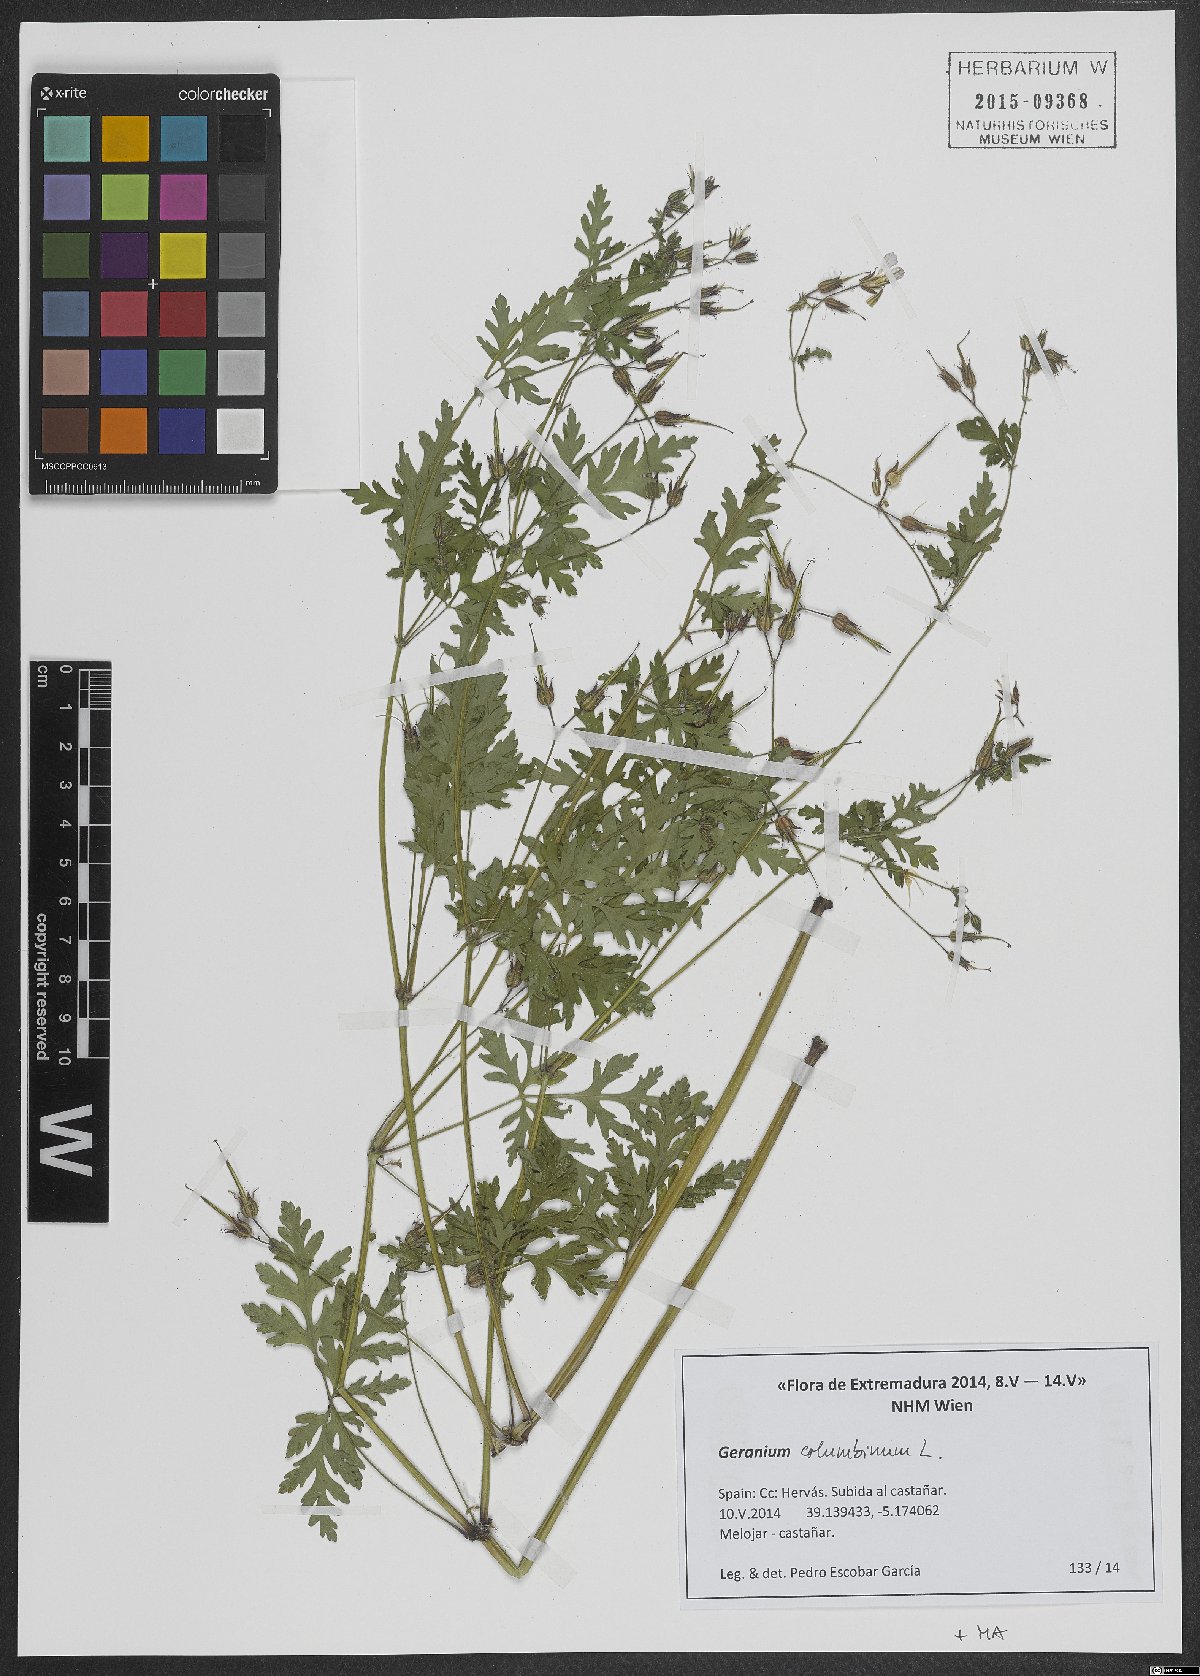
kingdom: Plantae
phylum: Tracheophyta
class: Magnoliopsida
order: Geraniales
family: Geraniaceae
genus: Geranium
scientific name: Geranium robertianum
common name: Herb-robert
